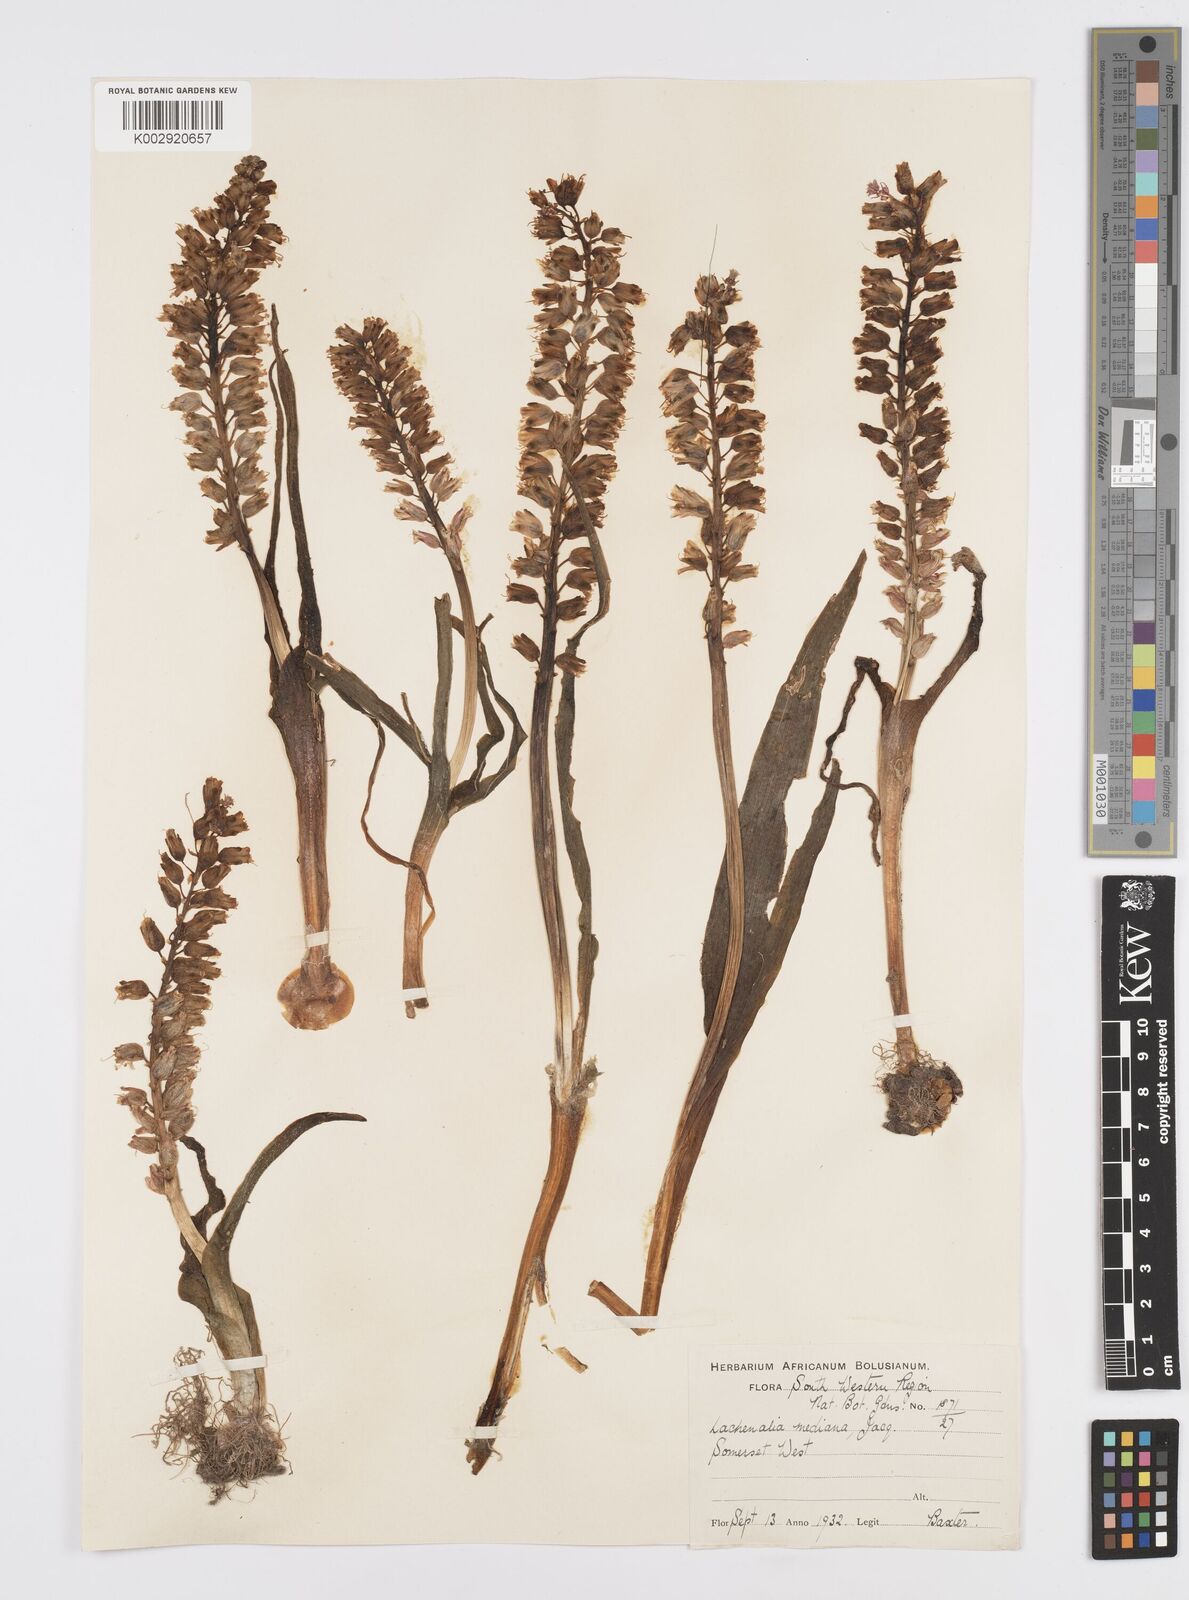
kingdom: Plantae
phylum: Tracheophyta
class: Liliopsida
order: Asparagales
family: Asparagaceae
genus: Lachenalia
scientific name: Lachenalia mediana
